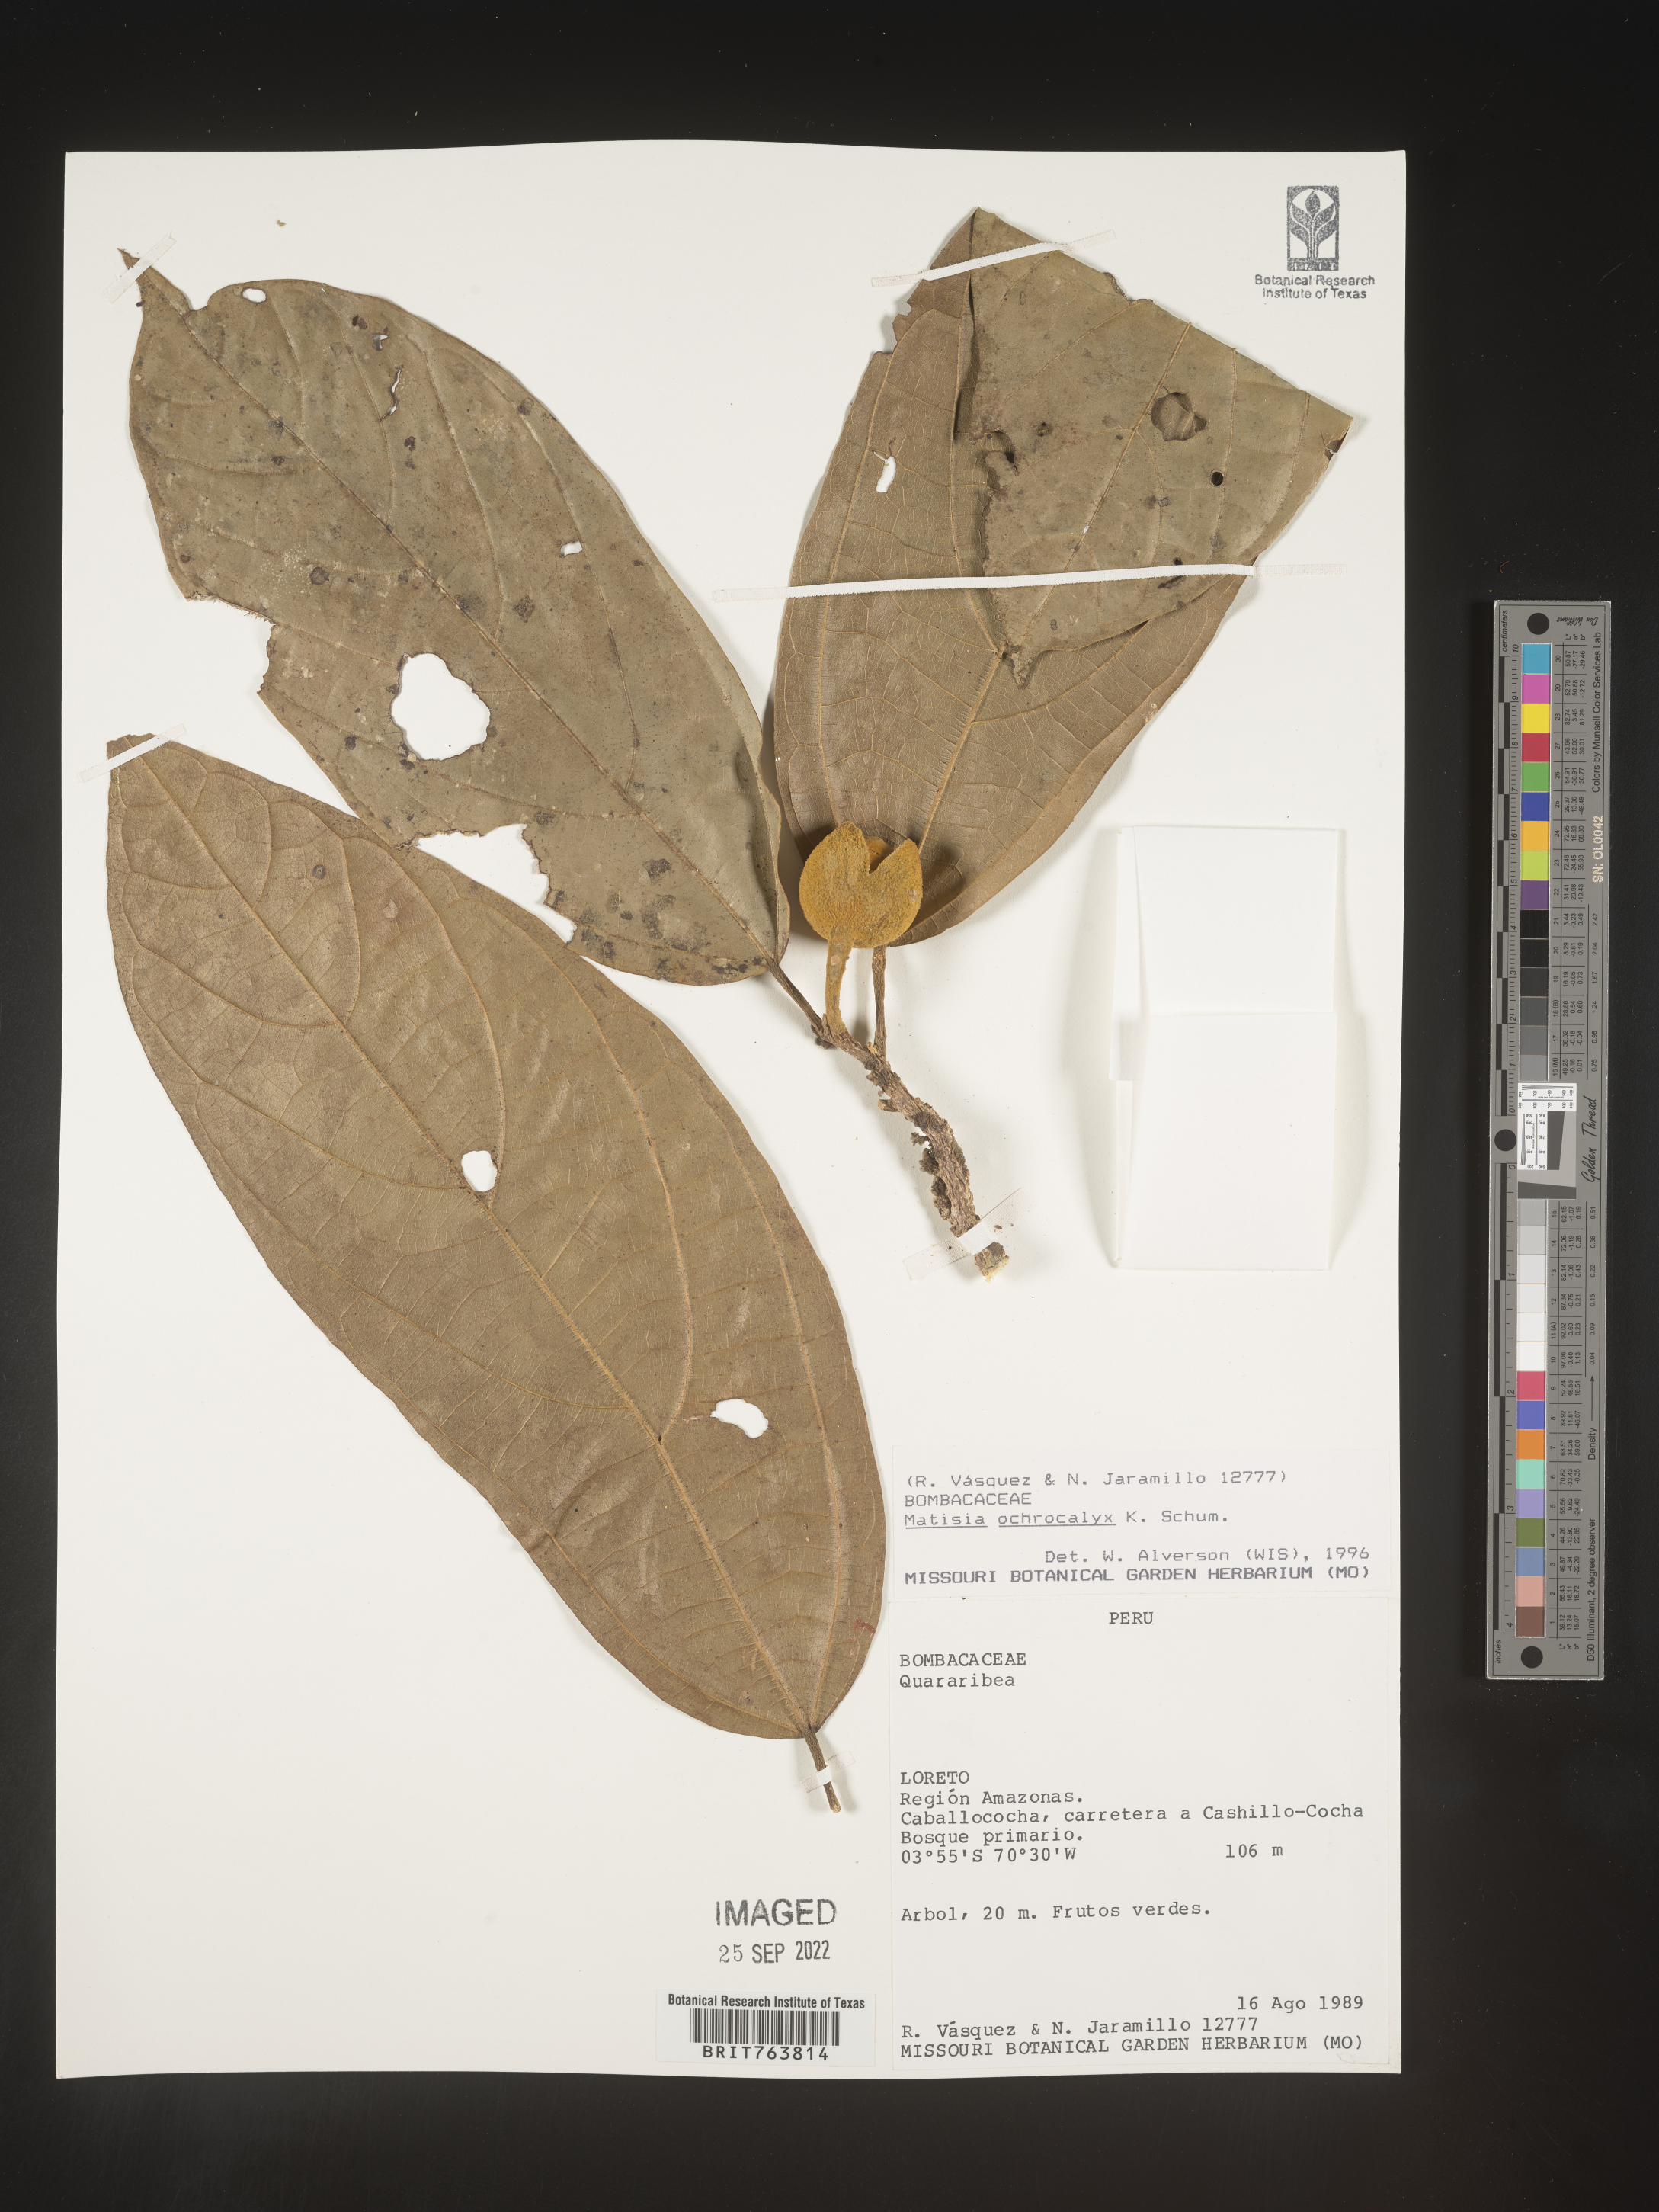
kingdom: Plantae
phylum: Tracheophyta
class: Magnoliopsida
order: Malvales
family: Malvaceae
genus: Matisia
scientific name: Matisia
